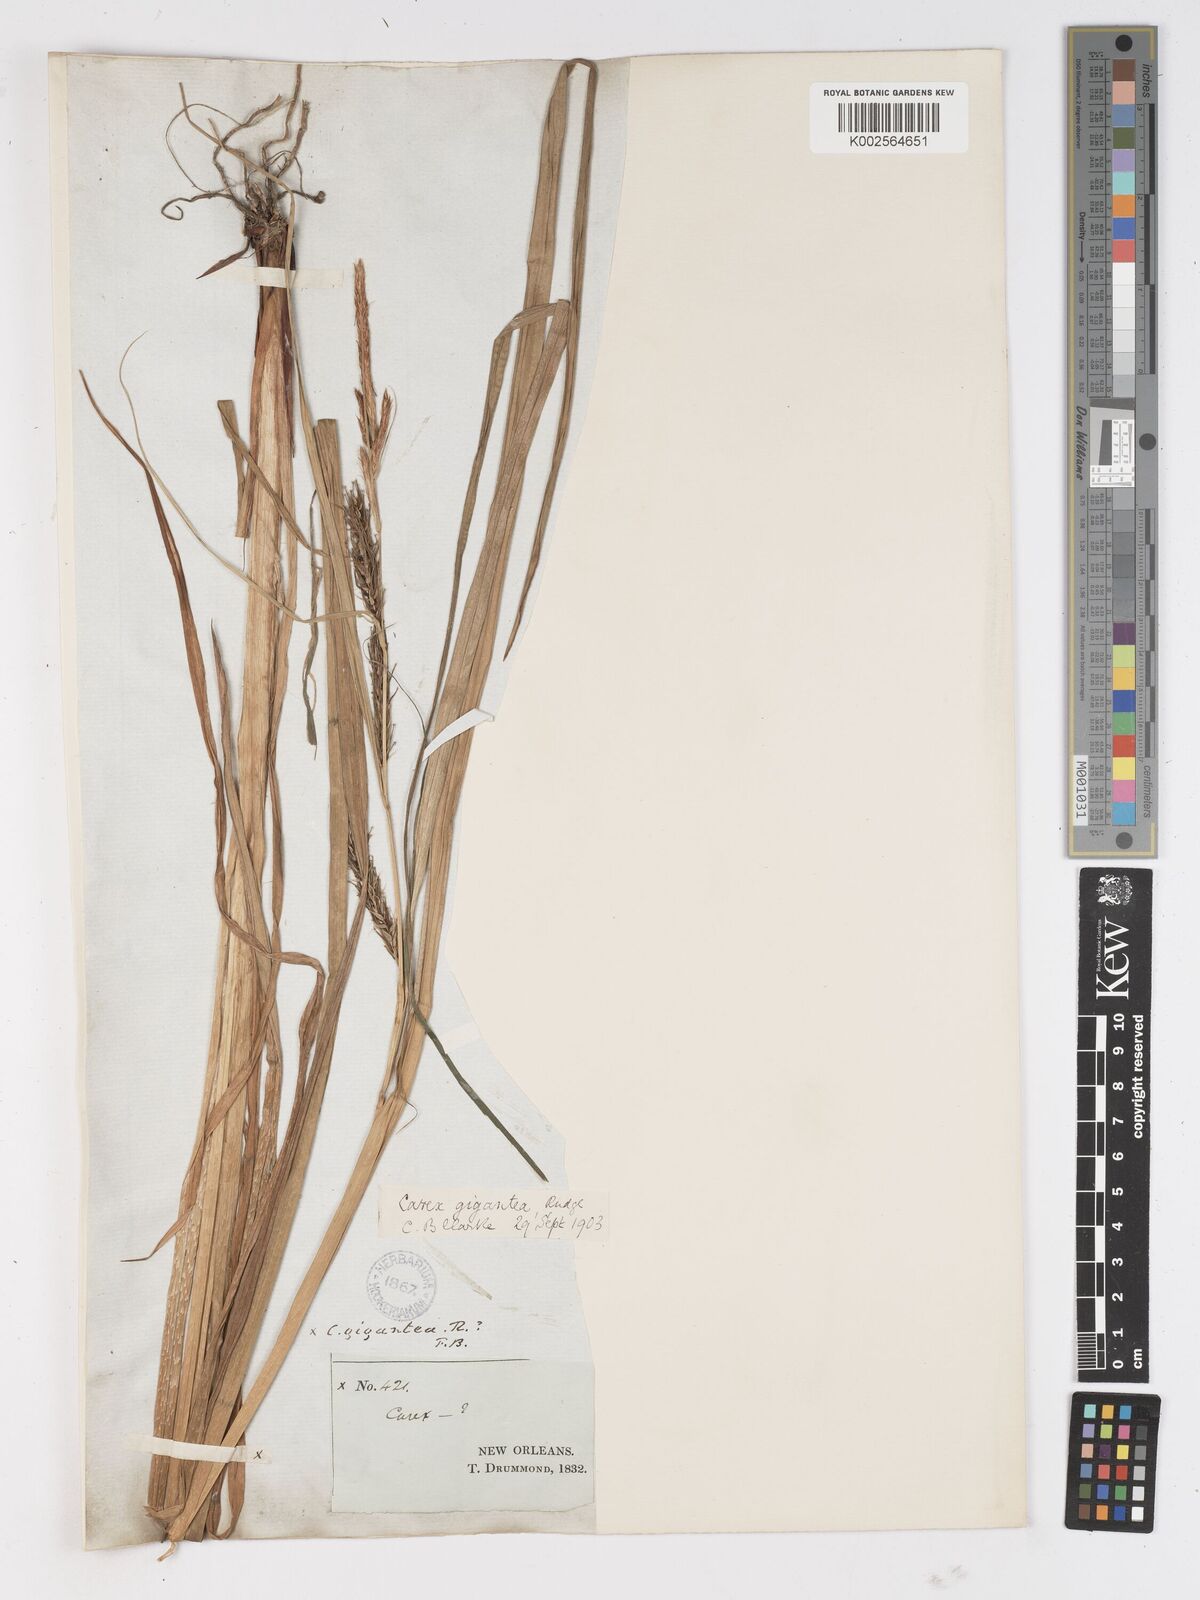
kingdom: Plantae
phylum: Tracheophyta
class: Liliopsida
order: Poales
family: Cyperaceae
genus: Carex
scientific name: Carex gigantea
